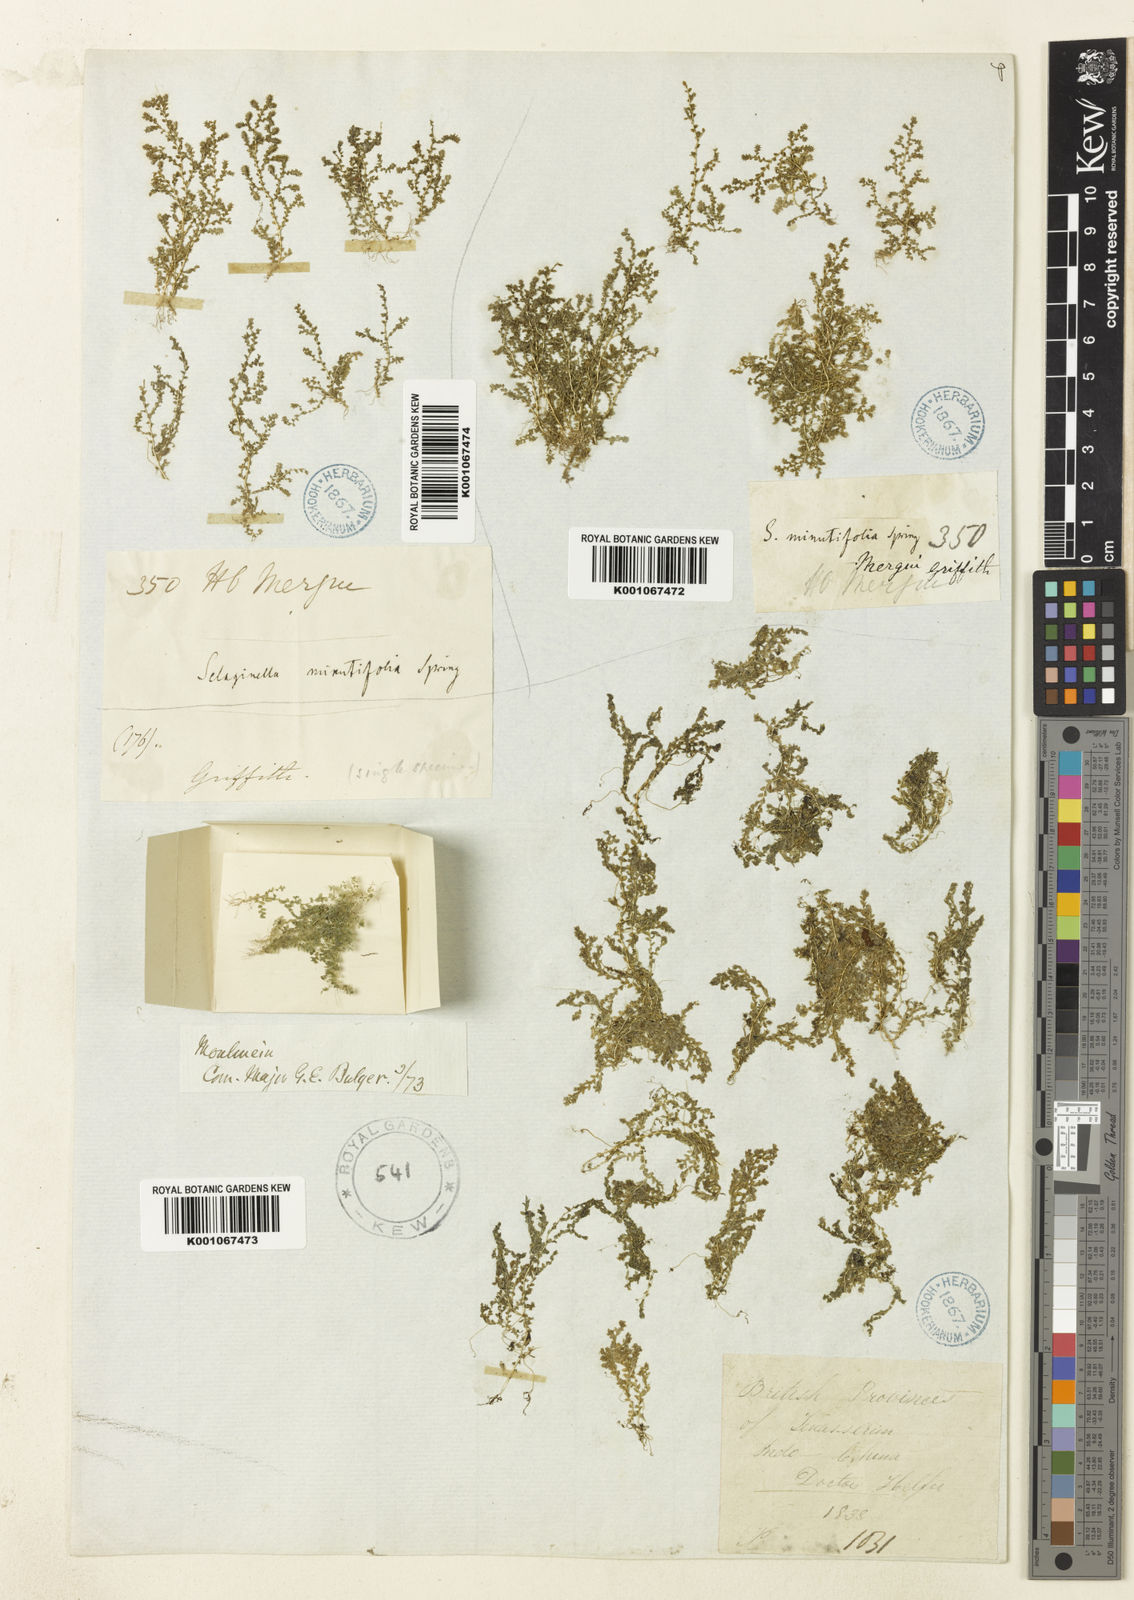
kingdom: Plantae
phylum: Tracheophyta
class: Lycopodiopsida
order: Selaginellales
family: Selaginellaceae
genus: Selaginella
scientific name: Selaginella minutifolia
